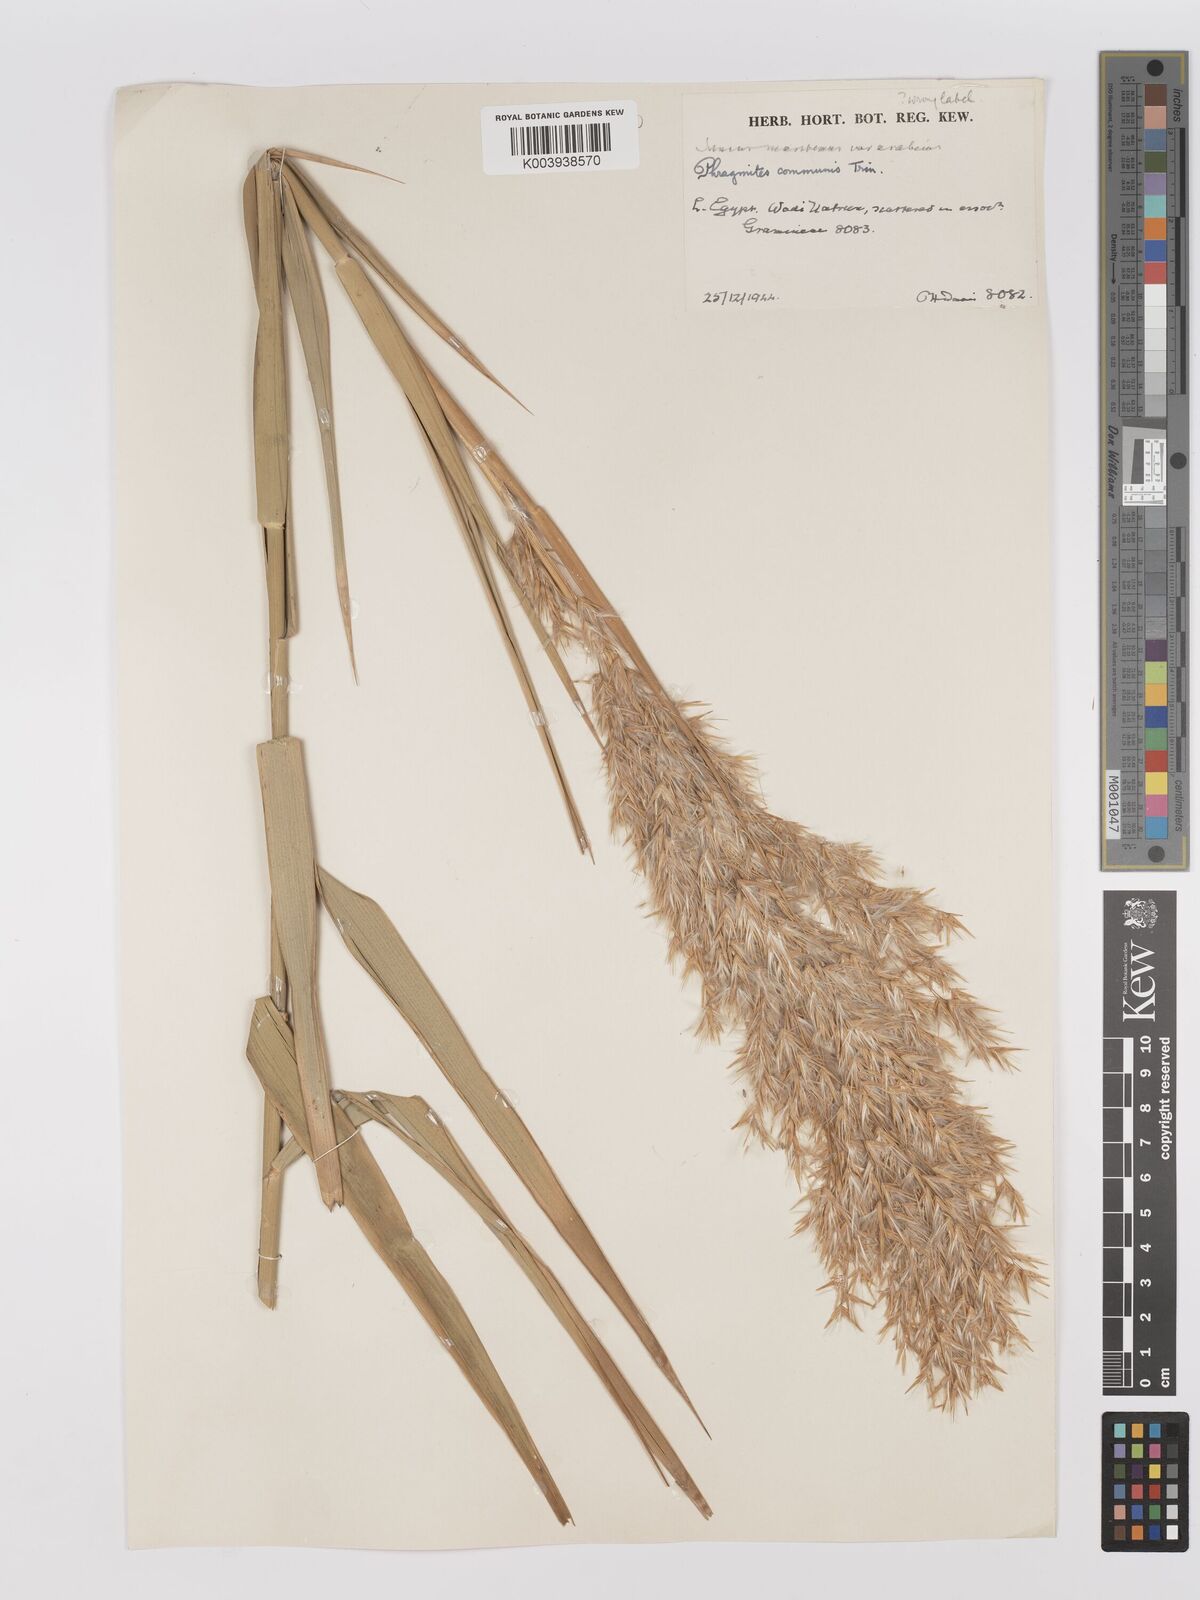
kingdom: Plantae
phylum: Tracheophyta
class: Liliopsida
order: Poales
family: Poaceae
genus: Phragmites
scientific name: Phragmites australis
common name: Common reed
